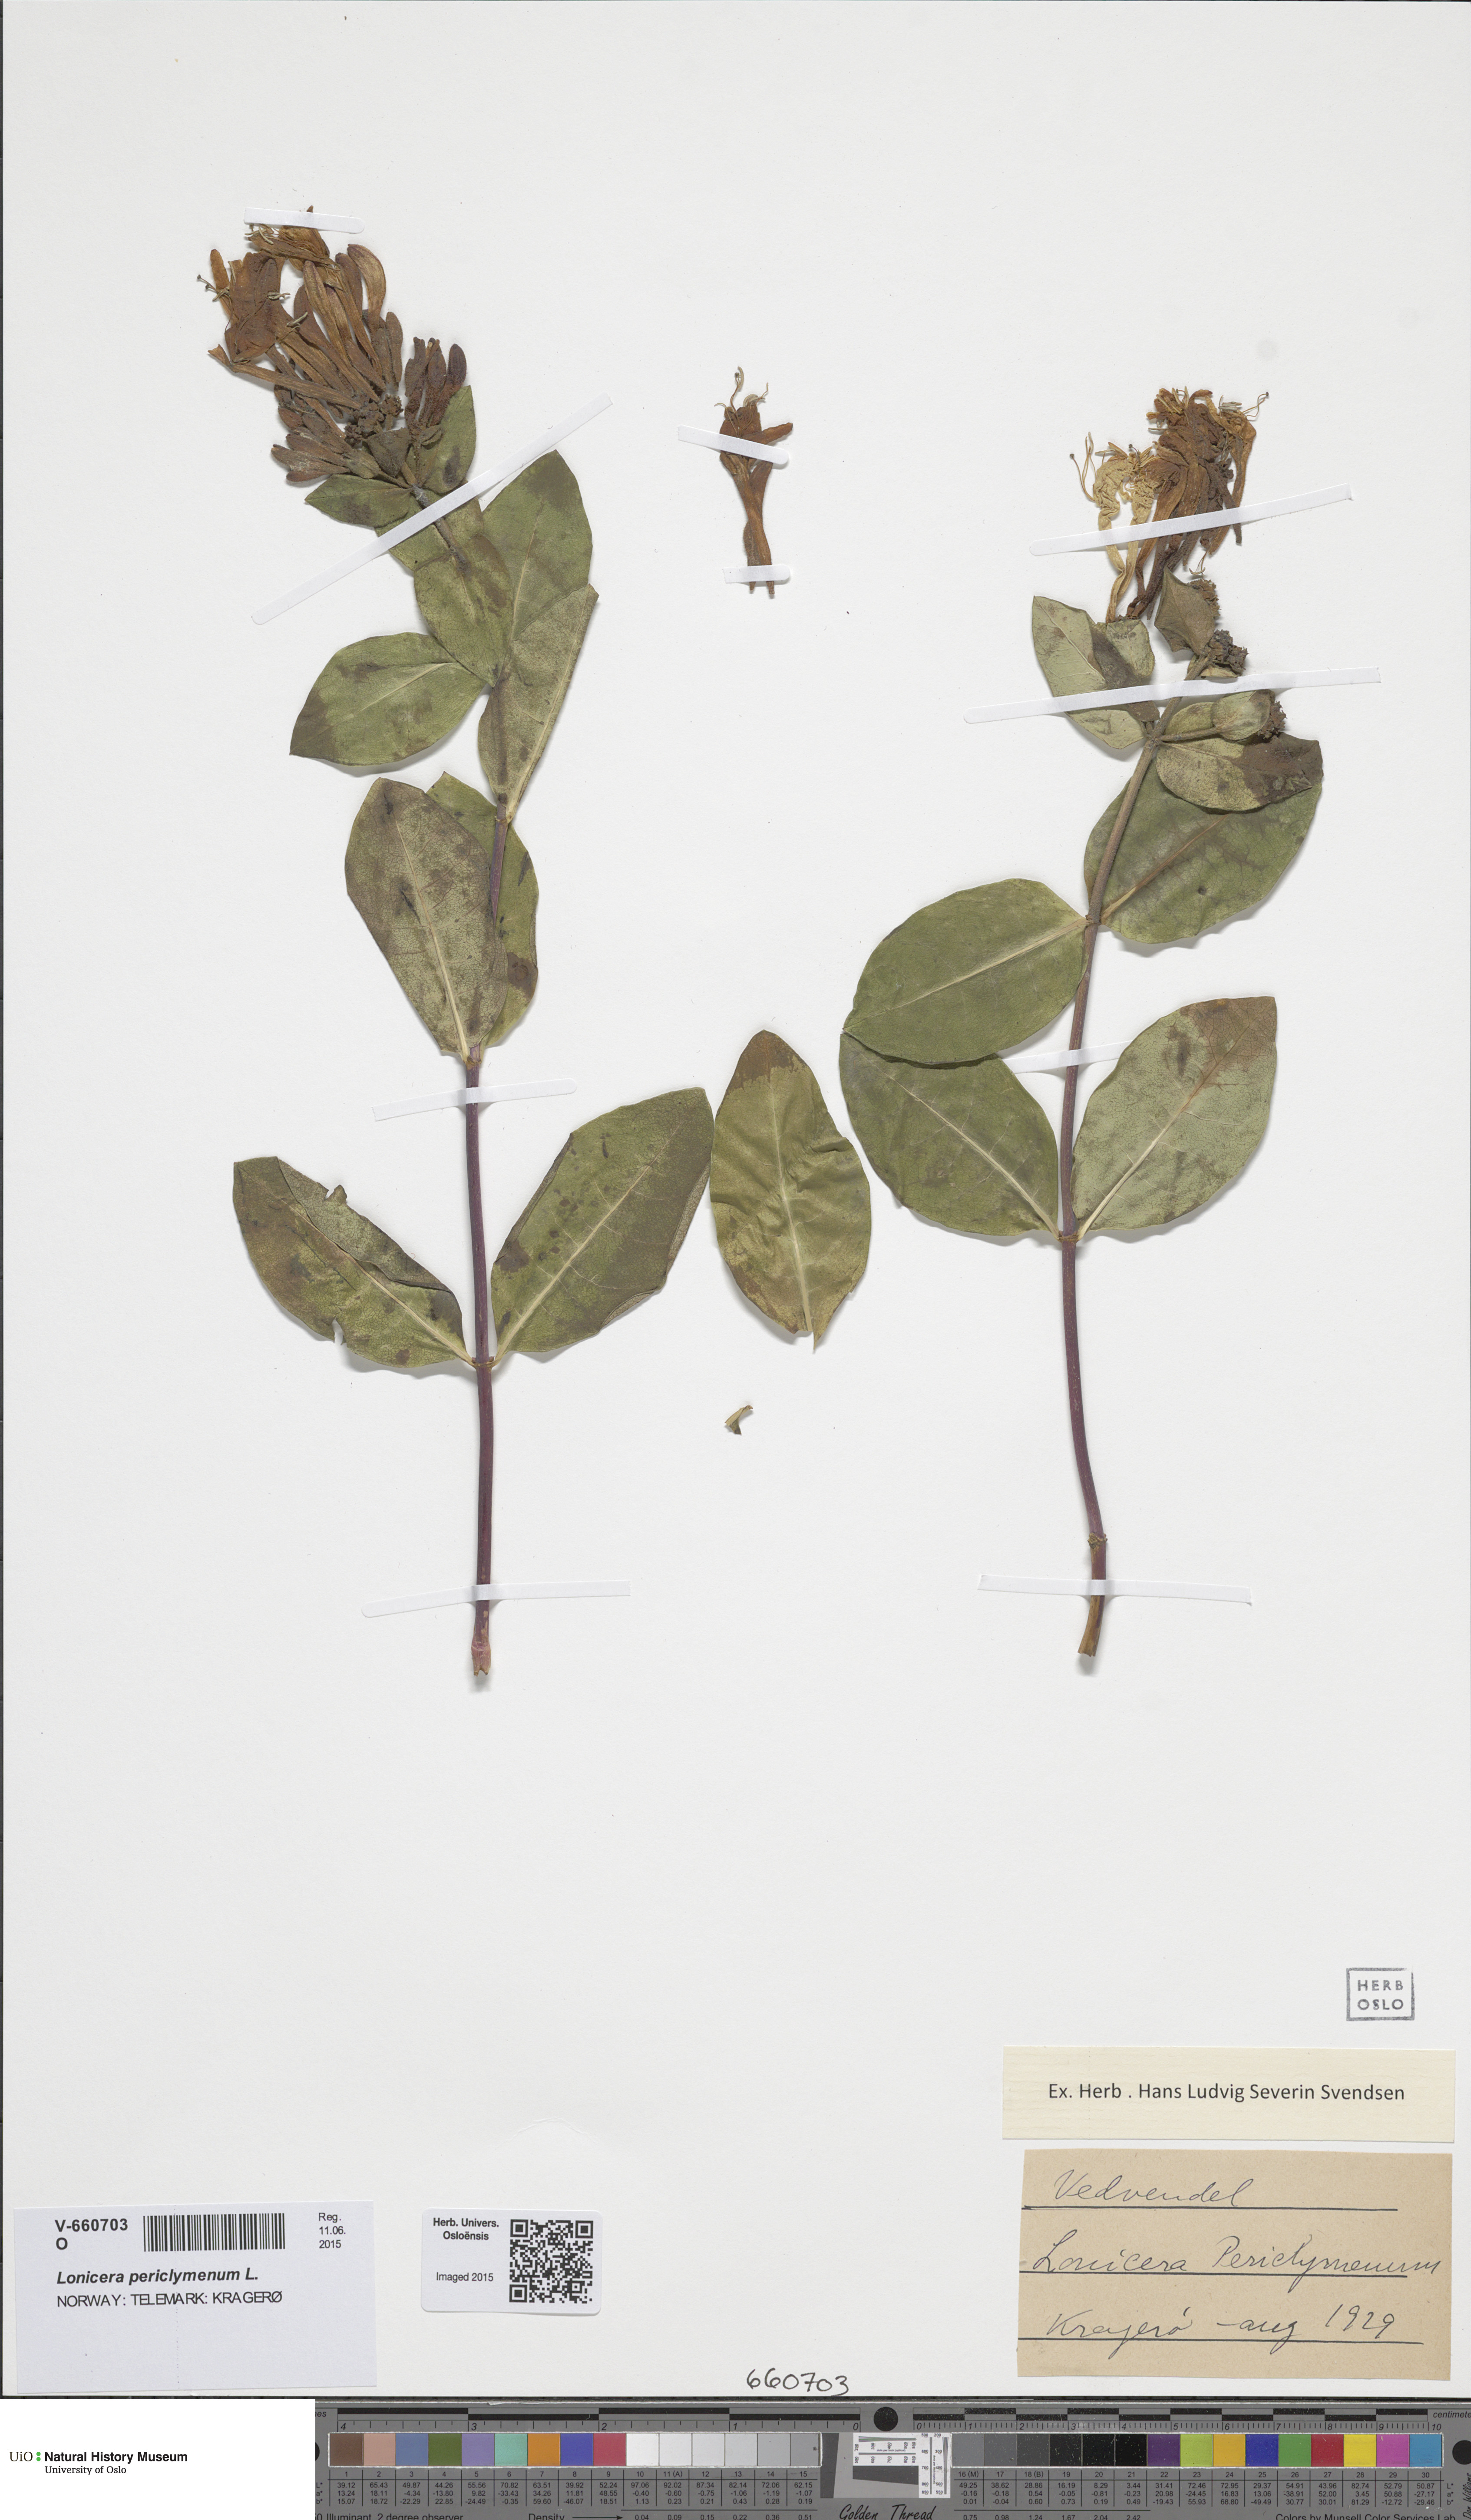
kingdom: Plantae
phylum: Tracheophyta
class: Magnoliopsida
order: Dipsacales
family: Caprifoliaceae
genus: Lonicera
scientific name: Lonicera periclymenum
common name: European honeysuckle
